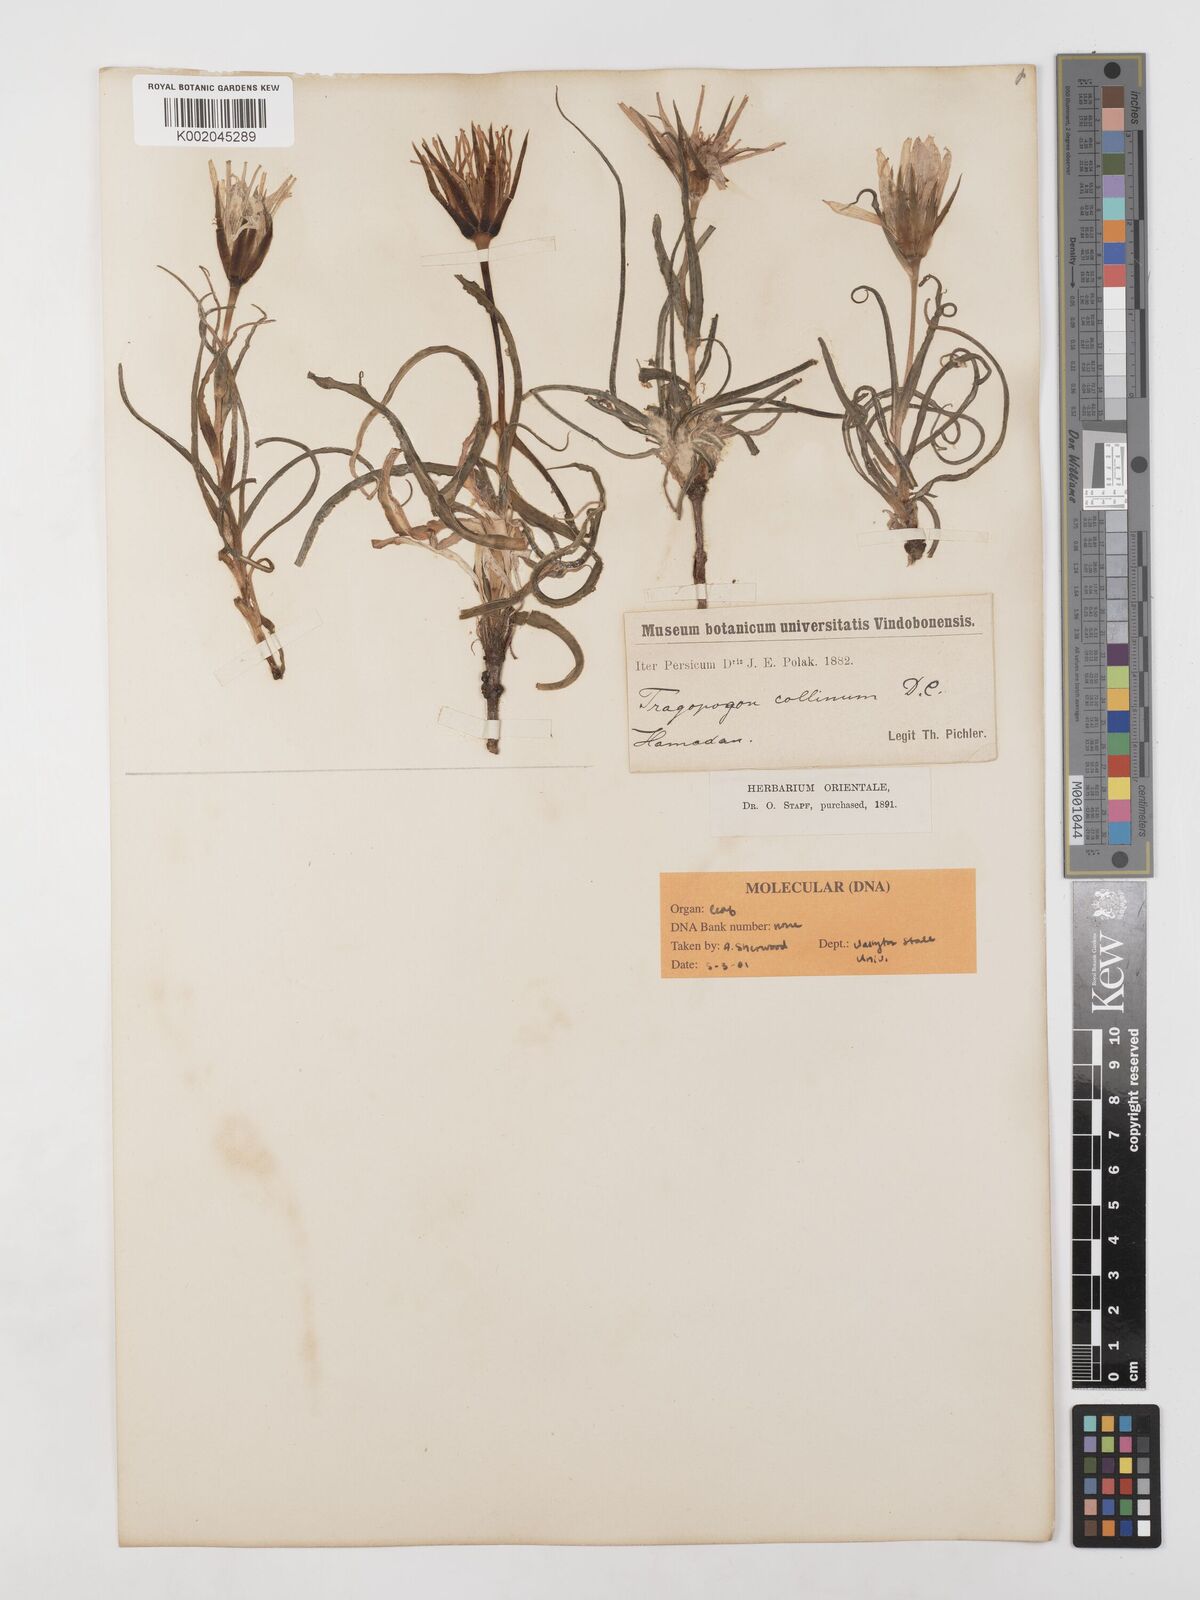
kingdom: Plantae
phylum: Tracheophyta
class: Magnoliopsida
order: Asterales
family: Asteraceae
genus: Tragopogon
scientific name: Tragopogon collinus
